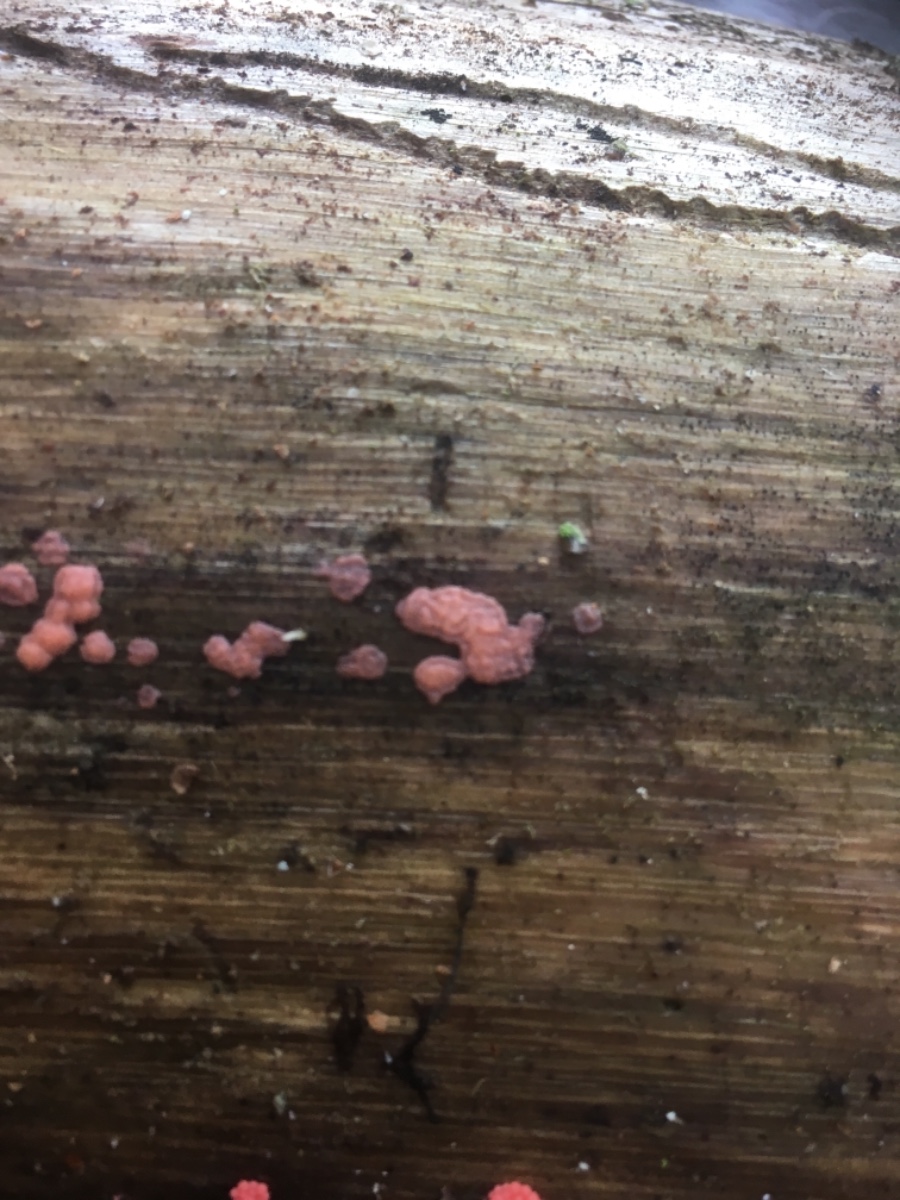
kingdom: Protozoa
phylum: Mycetozoa
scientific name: Mycetozoa
